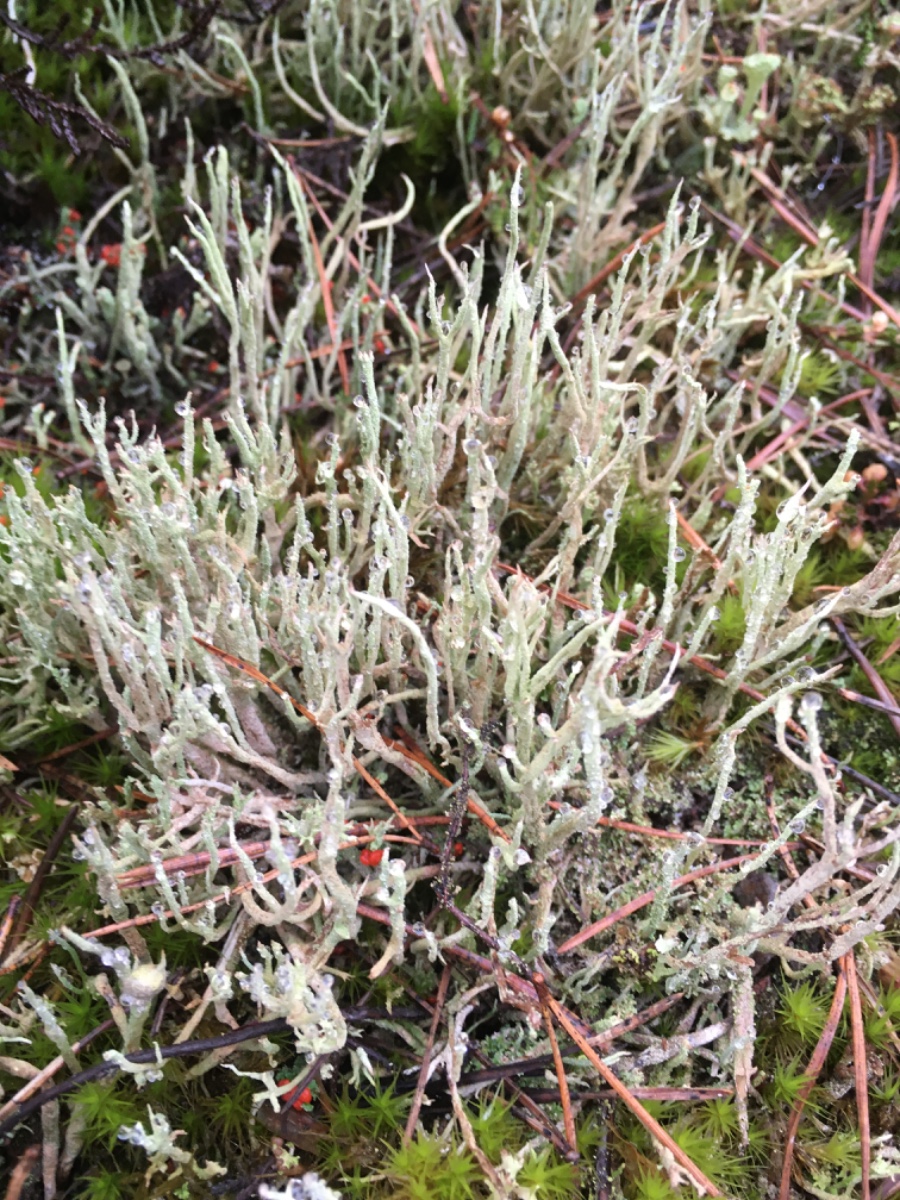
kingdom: Fungi
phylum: Ascomycota
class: Lecanoromycetes
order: Lecanorales
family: Cladoniaceae
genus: Cladonia
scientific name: Cladonia scabriuscula
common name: ru bægerlav
